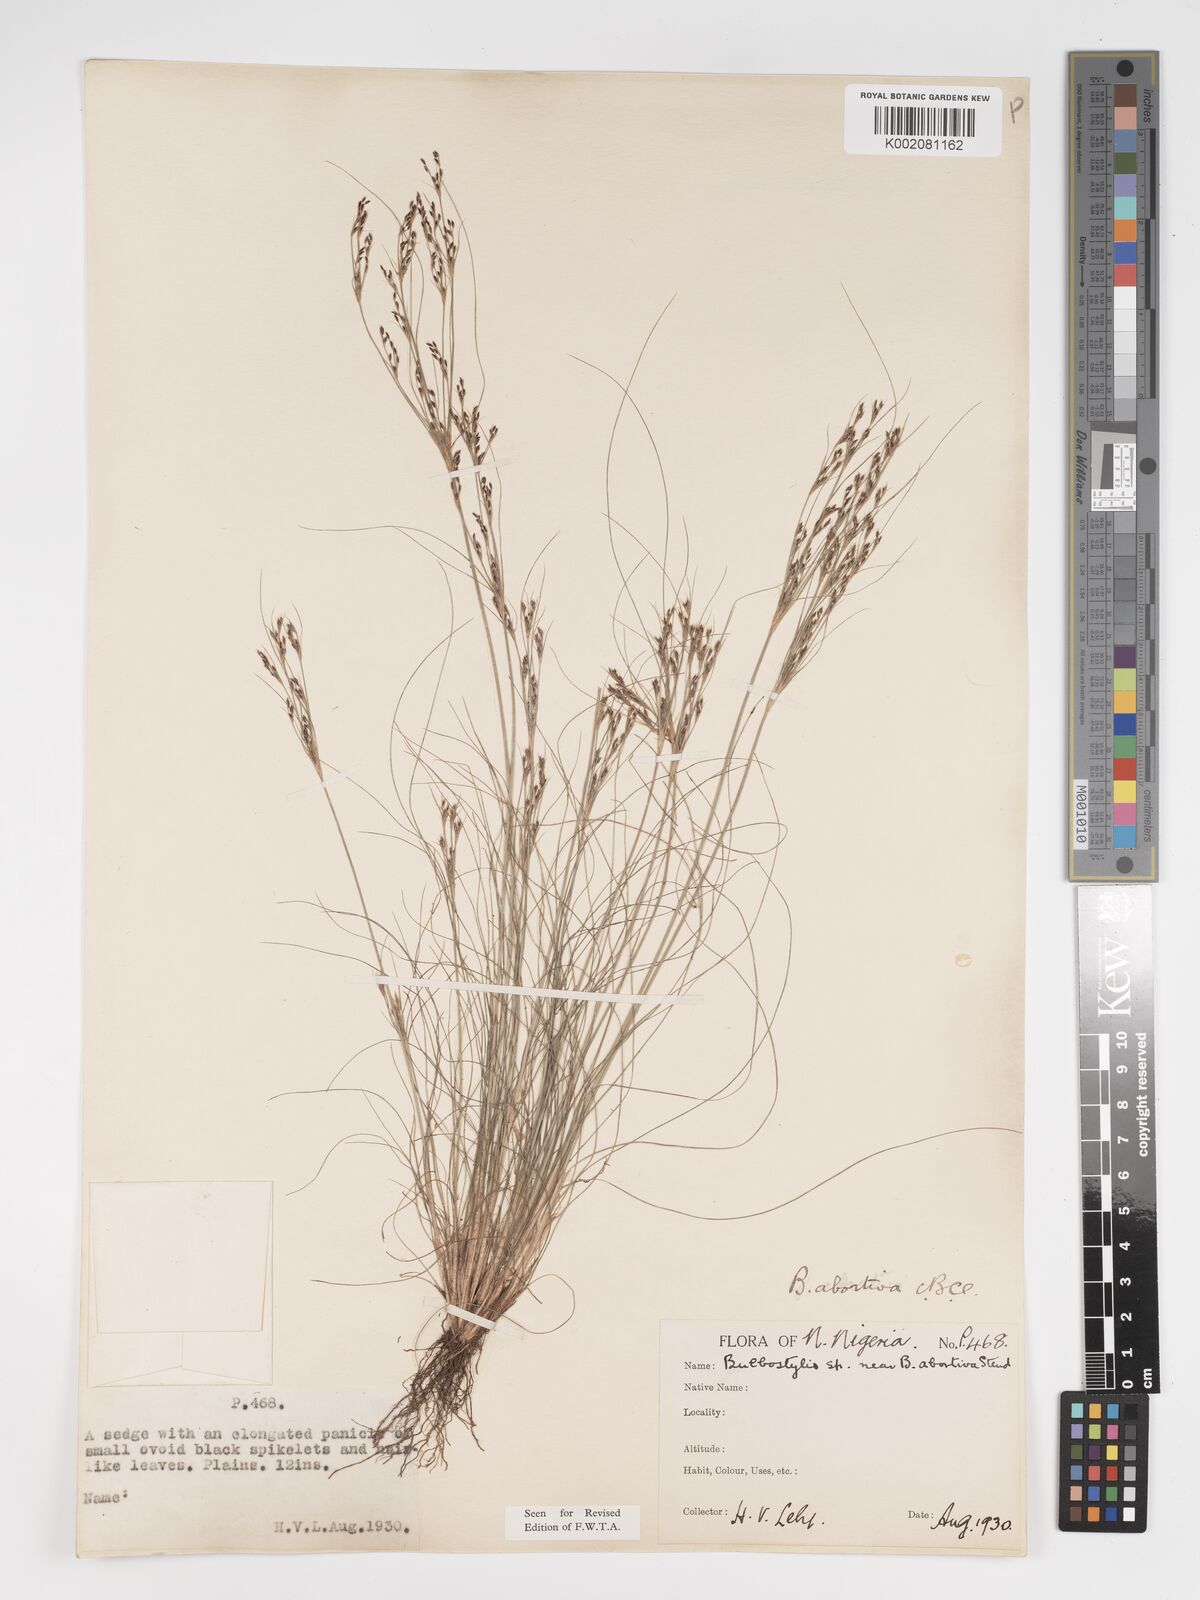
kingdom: Plantae
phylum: Tracheophyta
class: Liliopsida
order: Poales
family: Cyperaceae
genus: Bulbostylis
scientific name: Bulbostylis abortiva
